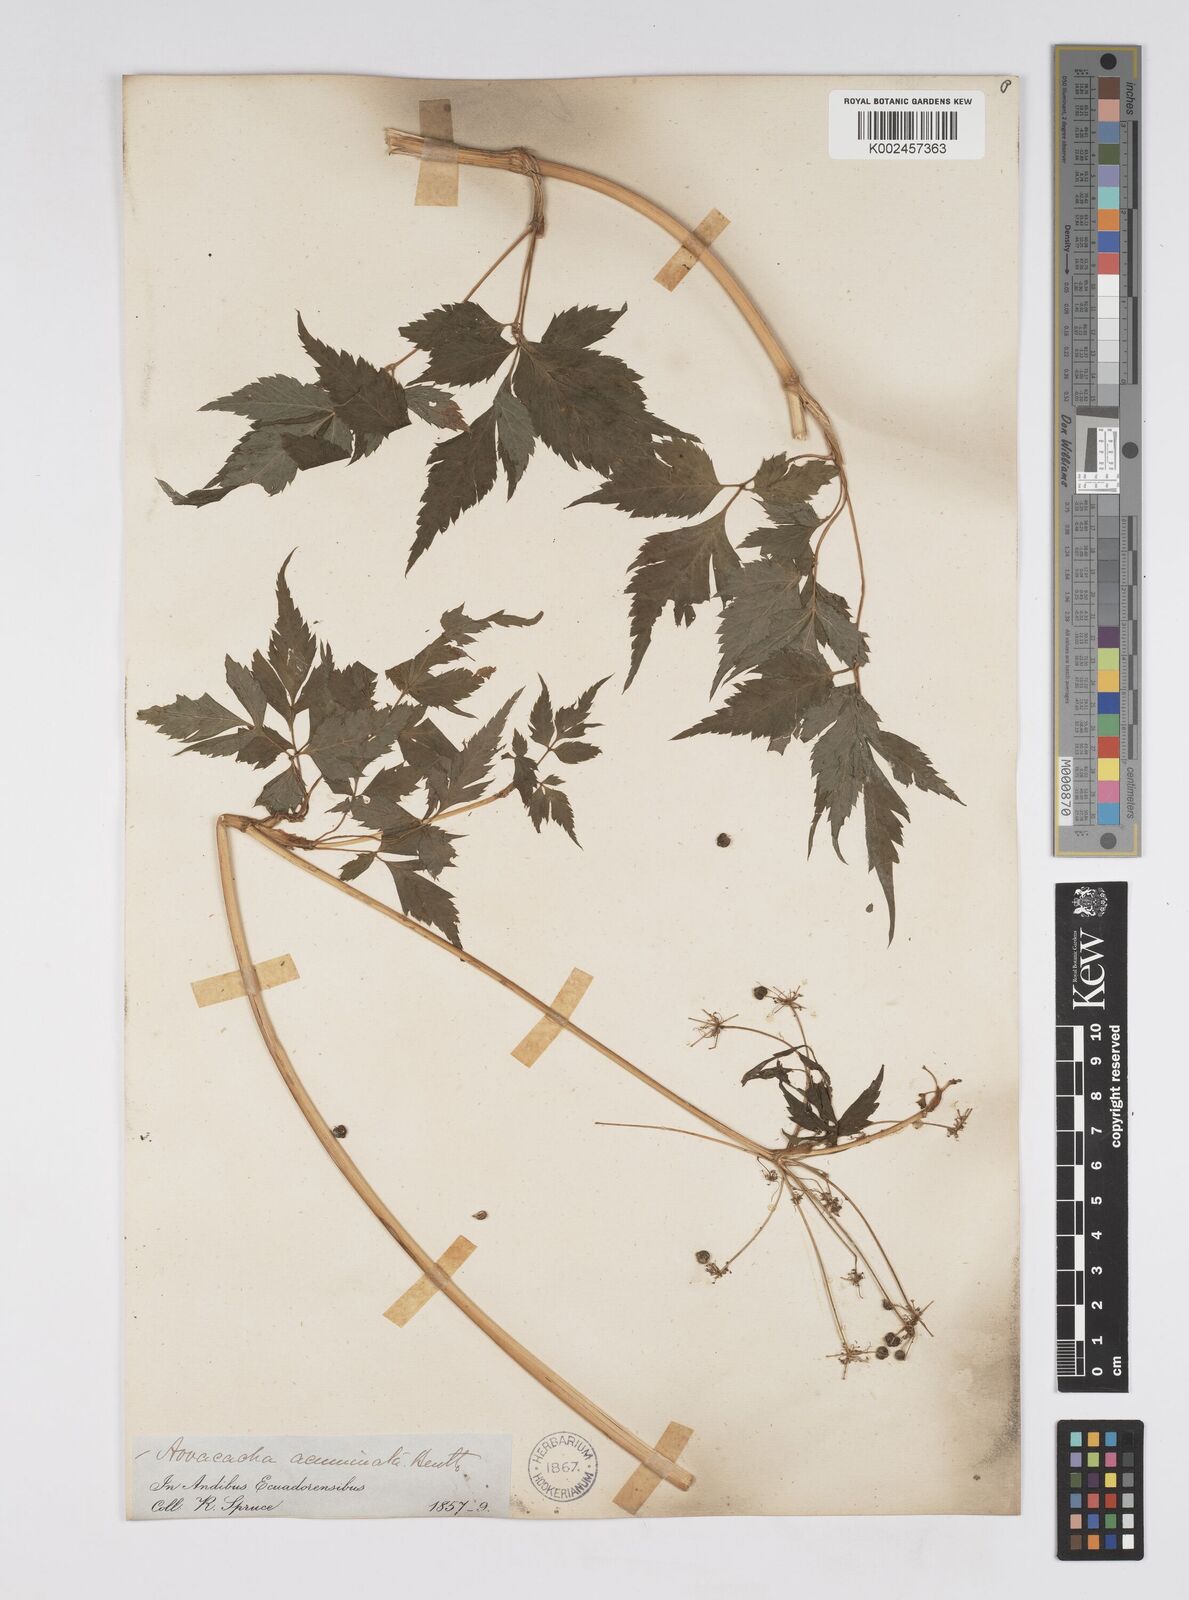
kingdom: Plantae
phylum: Tracheophyta
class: Magnoliopsida
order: Apiales
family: Apiaceae
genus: Neonelsonia
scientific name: Neonelsonia acuminata
